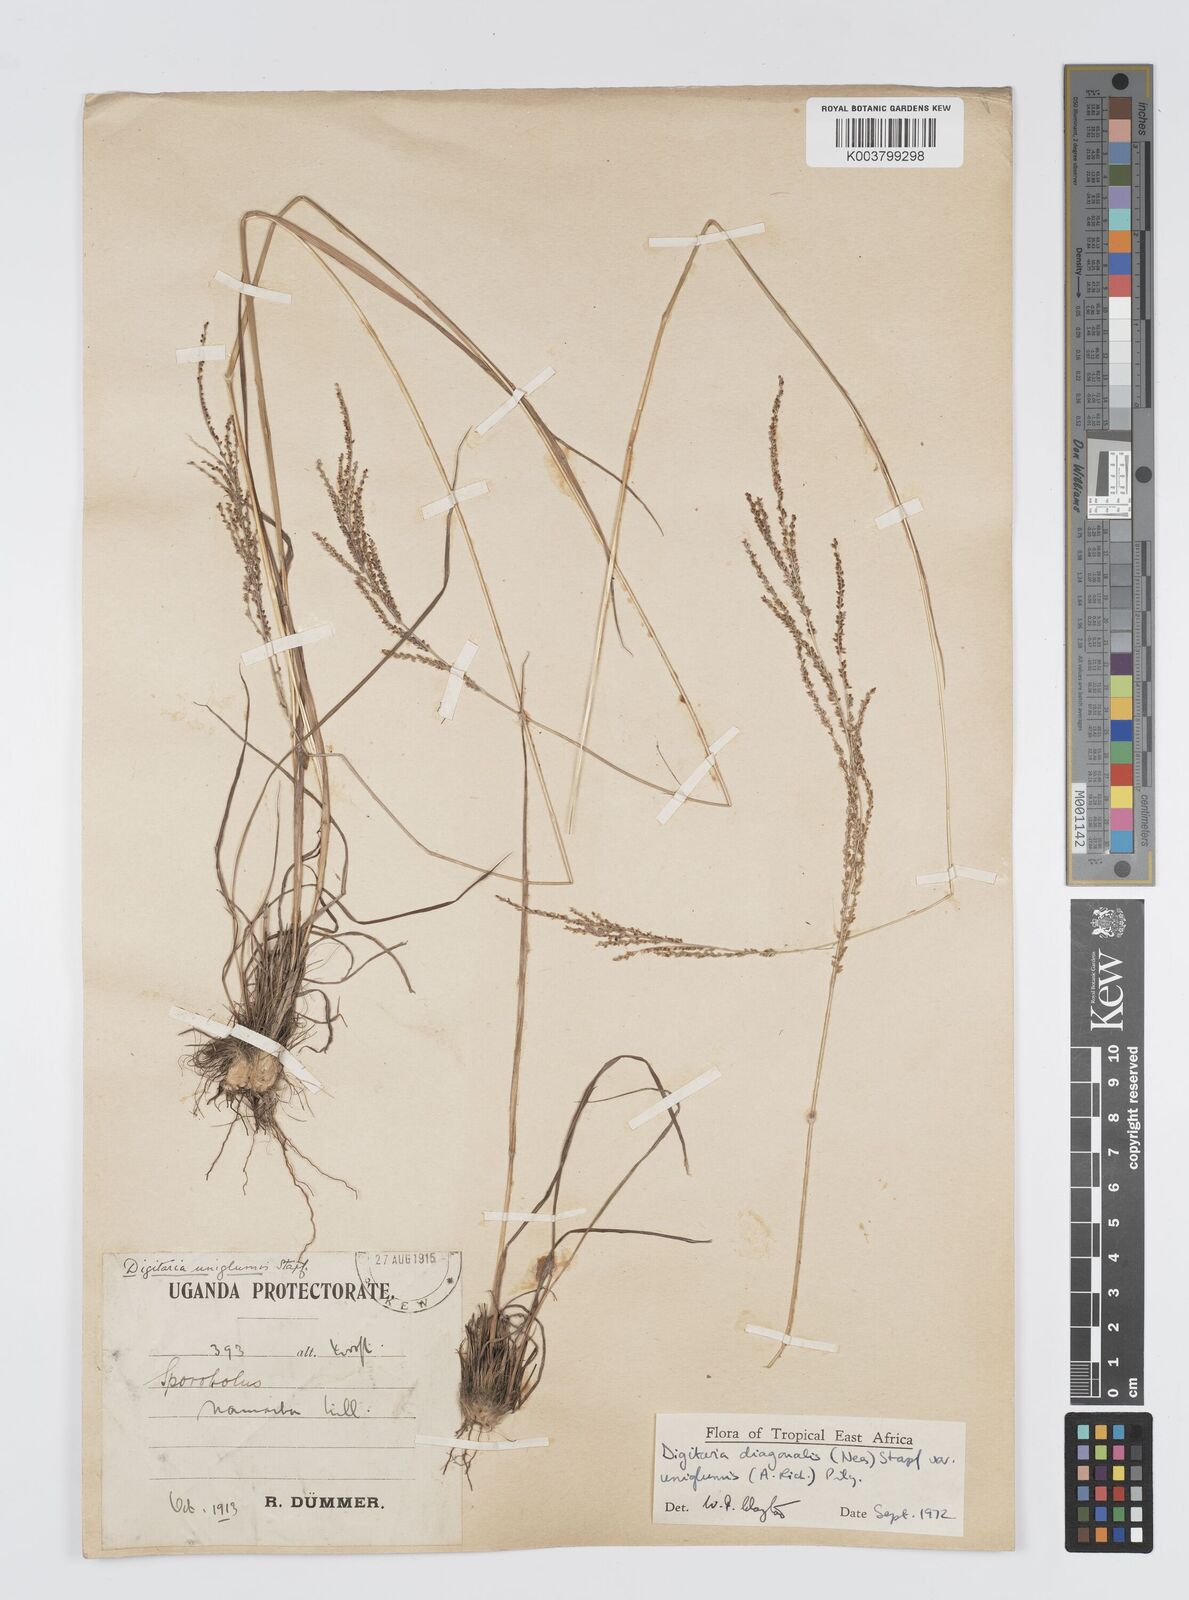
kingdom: Plantae
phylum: Tracheophyta
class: Liliopsida
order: Poales
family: Poaceae
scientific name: Poaceae
